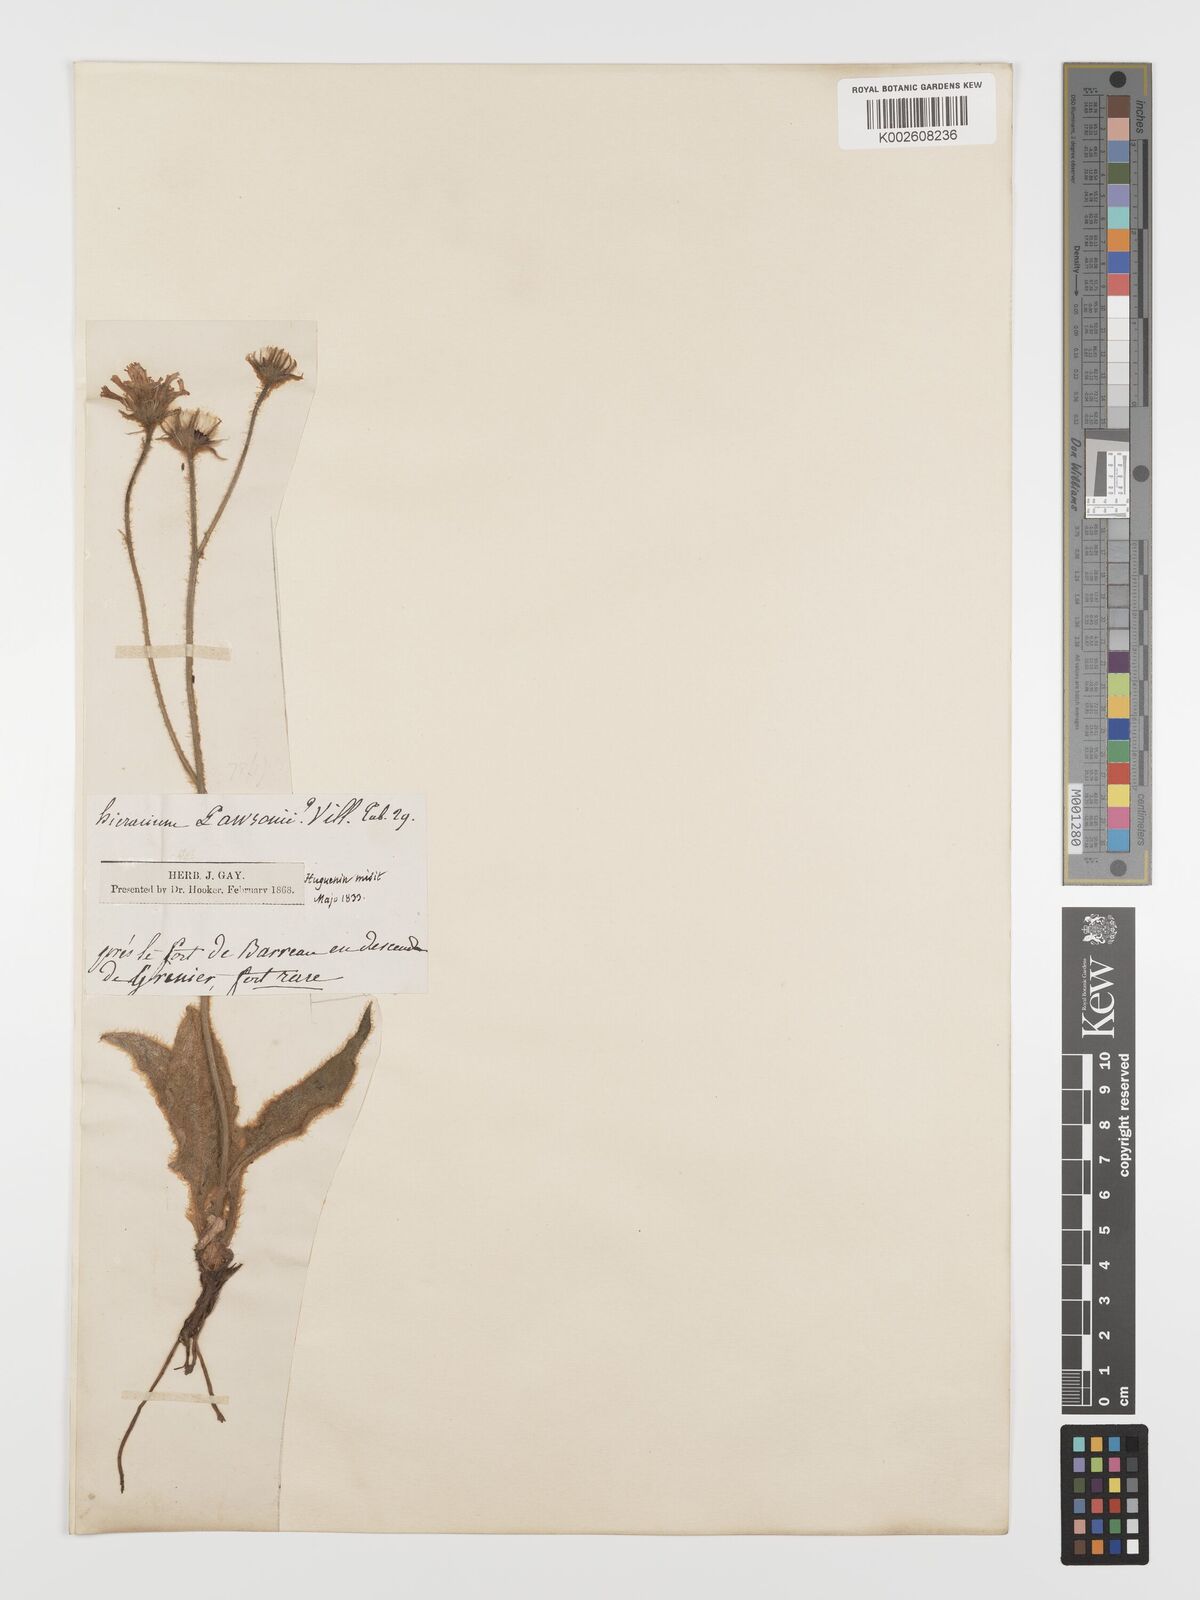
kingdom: Plantae
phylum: Tracheophyta
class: Magnoliopsida
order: Asterales
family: Asteraceae
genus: Hieracium
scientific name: Hieracium leiopogon
